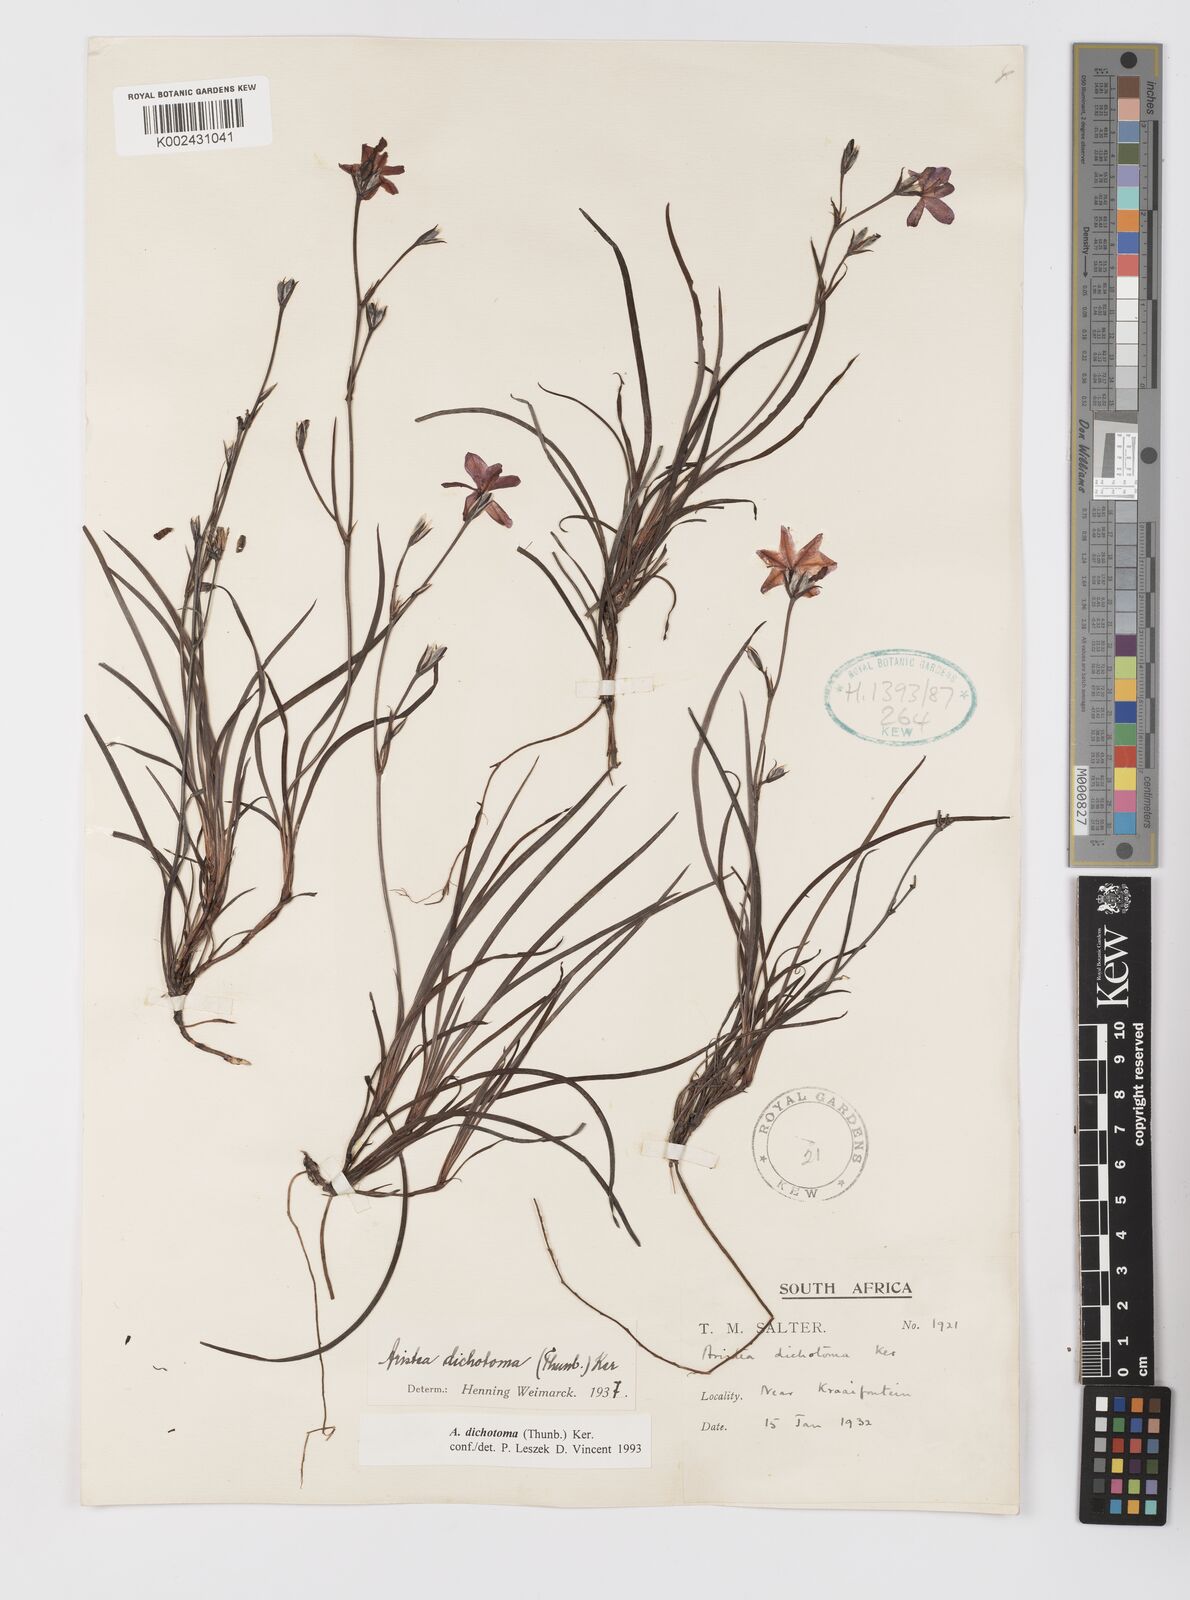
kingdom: Plantae
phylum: Tracheophyta
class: Liliopsida
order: Asparagales
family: Iridaceae
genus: Aristea
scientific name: Aristea dichotoma
